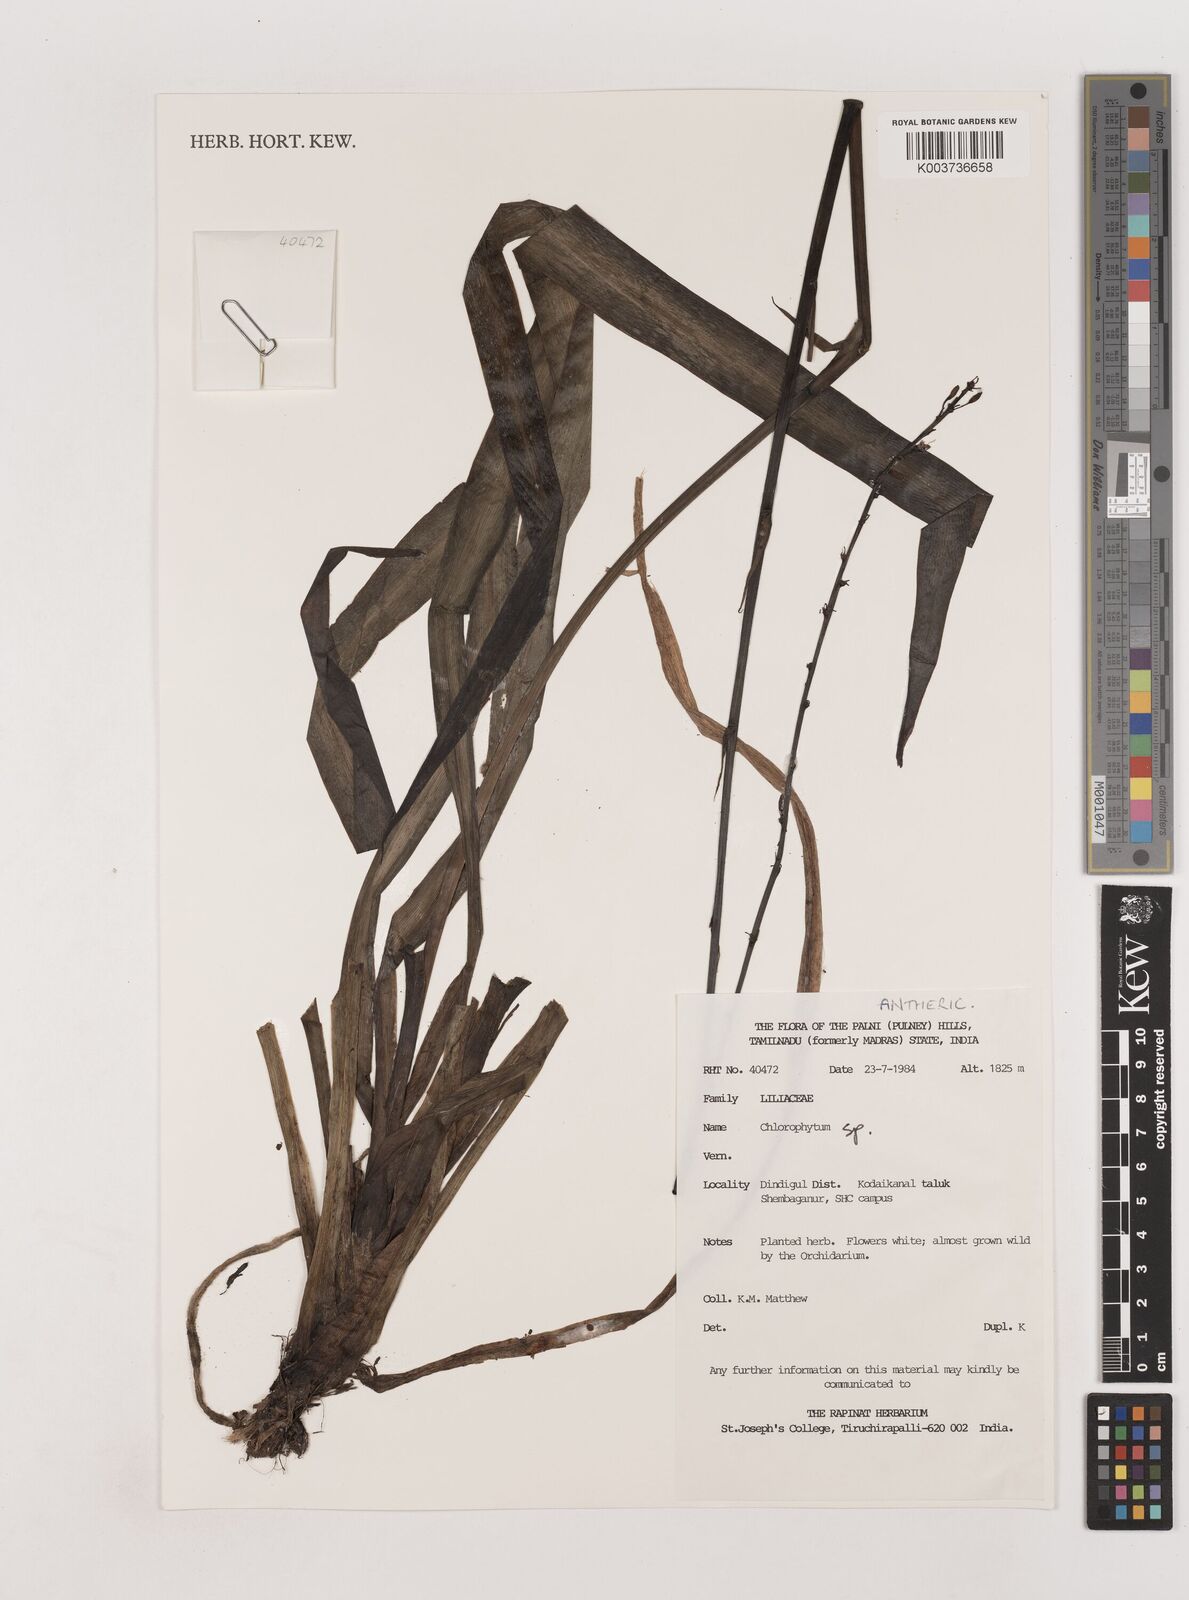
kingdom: Plantae
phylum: Tracheophyta
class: Liliopsida
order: Asparagales
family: Asparagaceae
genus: Chlorophytum
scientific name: Chlorophytum
